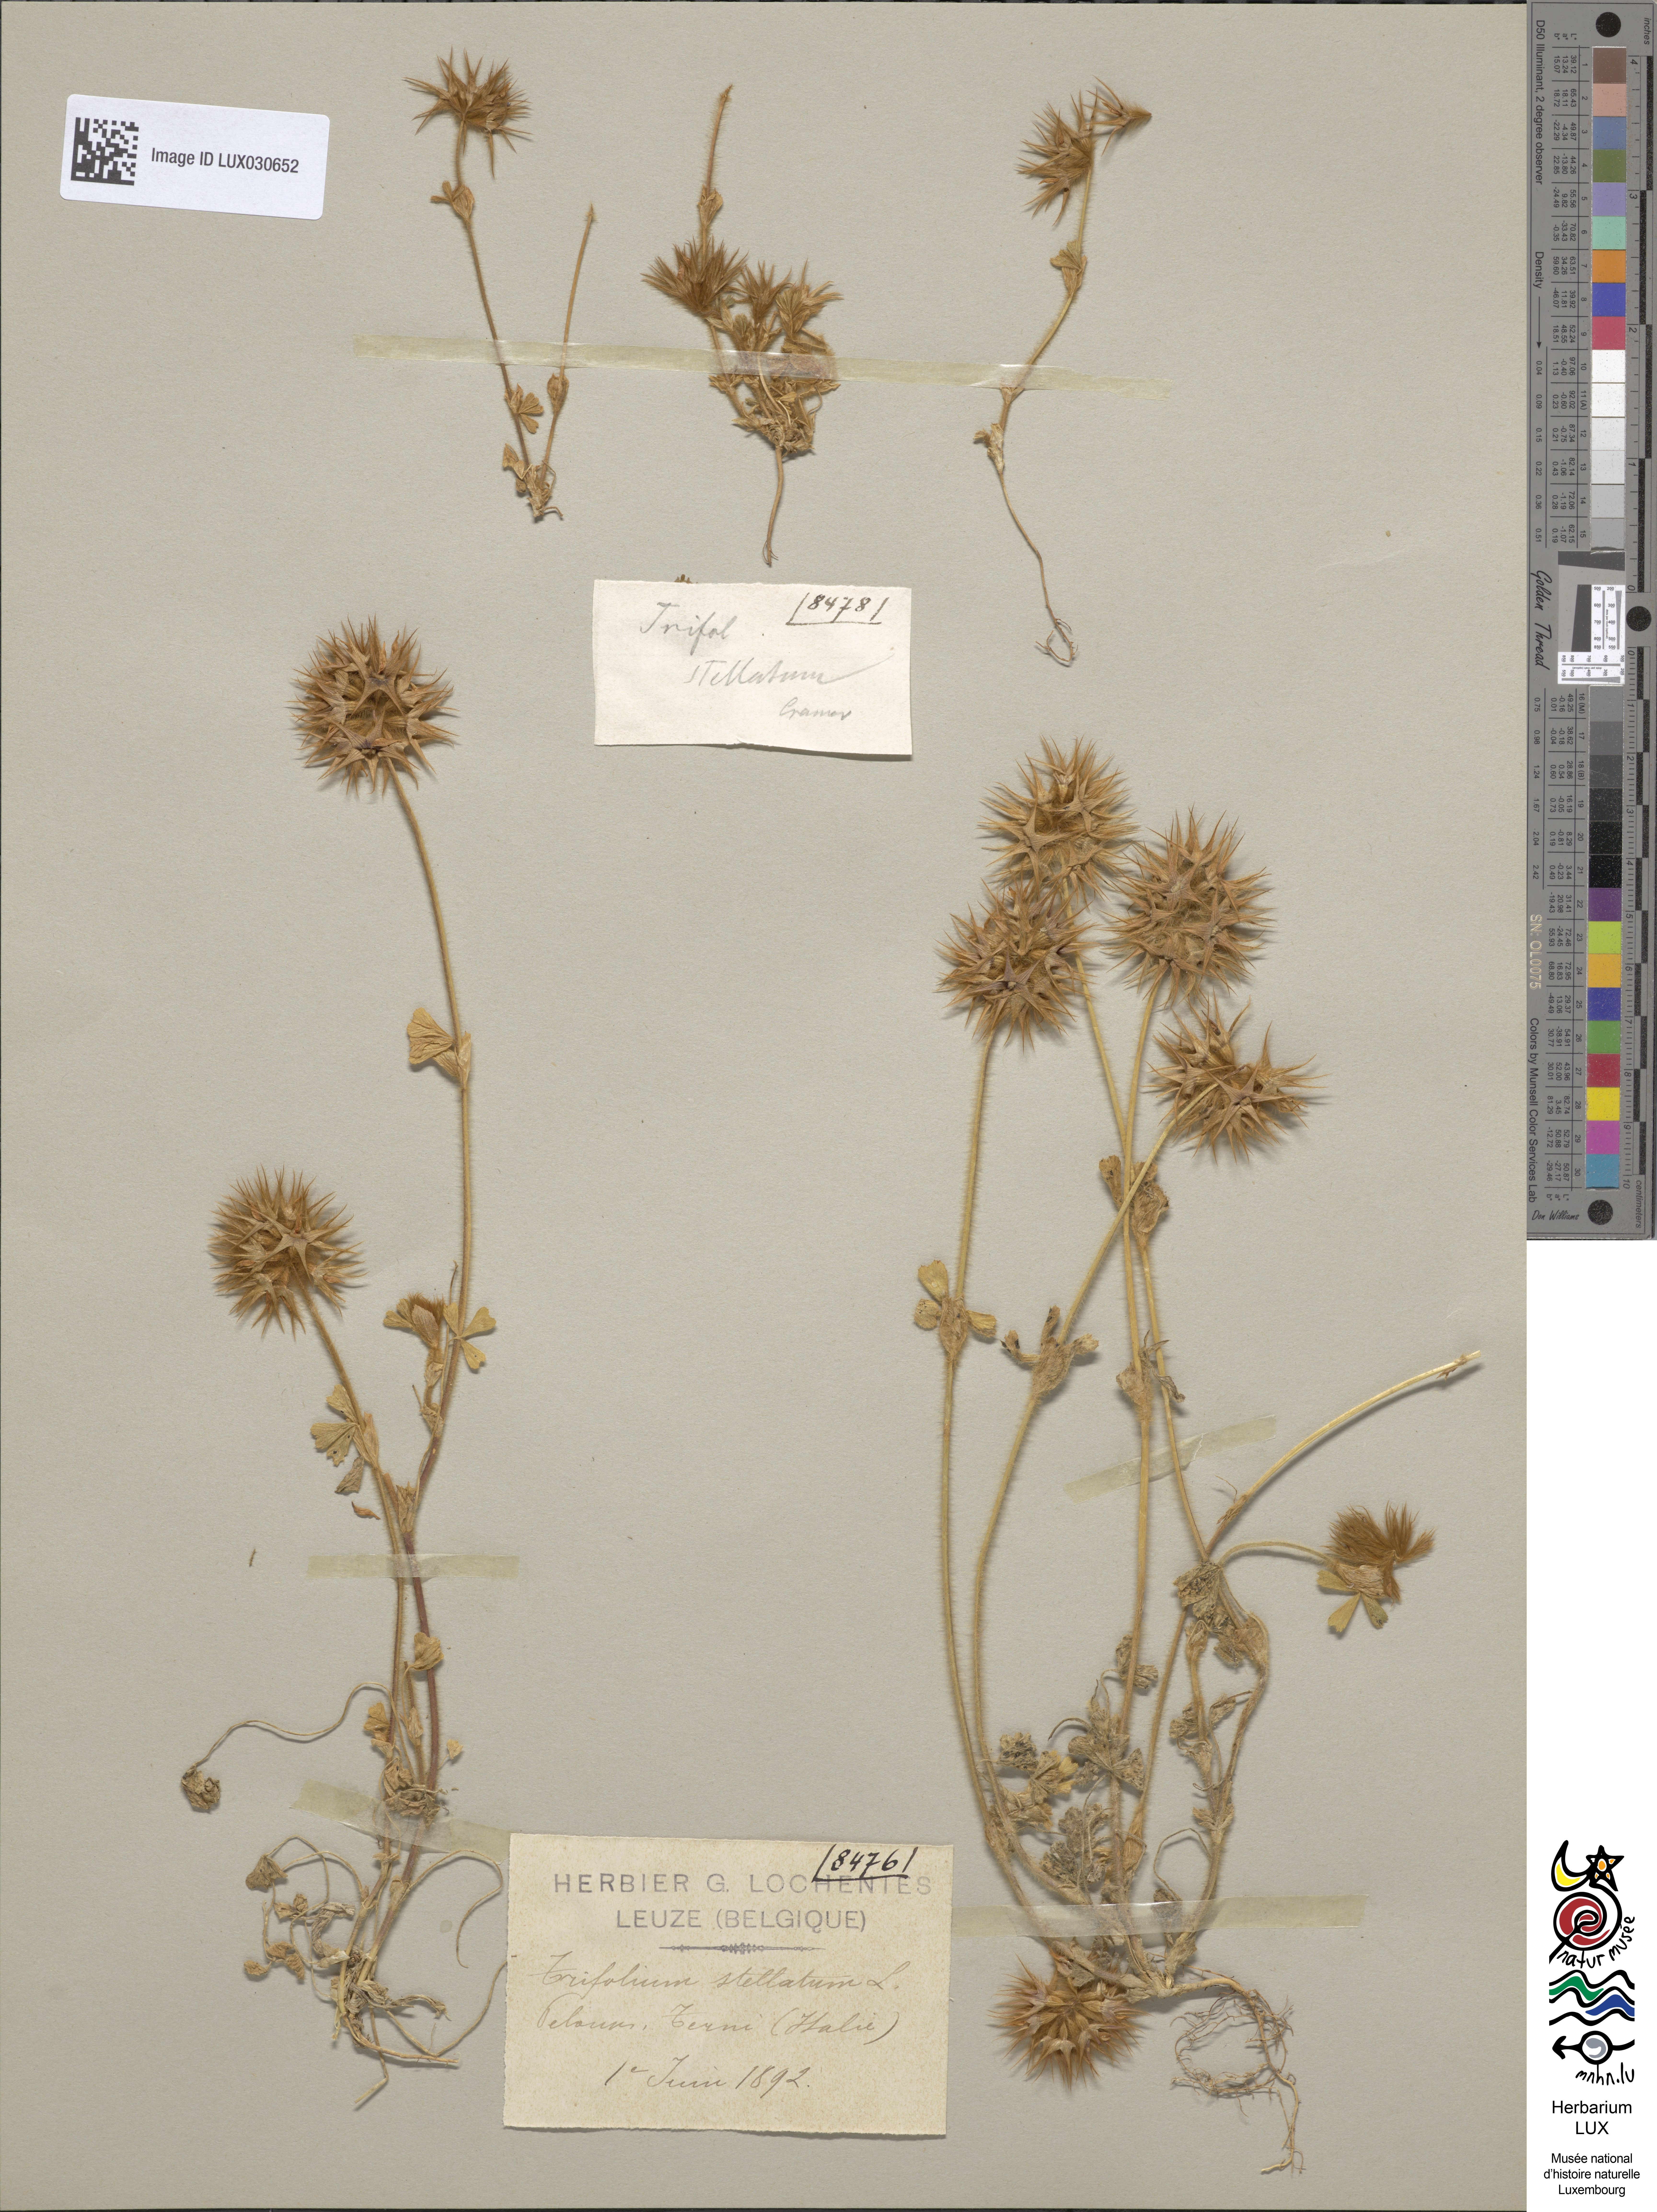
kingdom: Plantae
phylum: Tracheophyta
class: Magnoliopsida
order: Fabales
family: Fabaceae
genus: Trifolium
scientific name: Trifolium stellatum
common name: Starry clover
